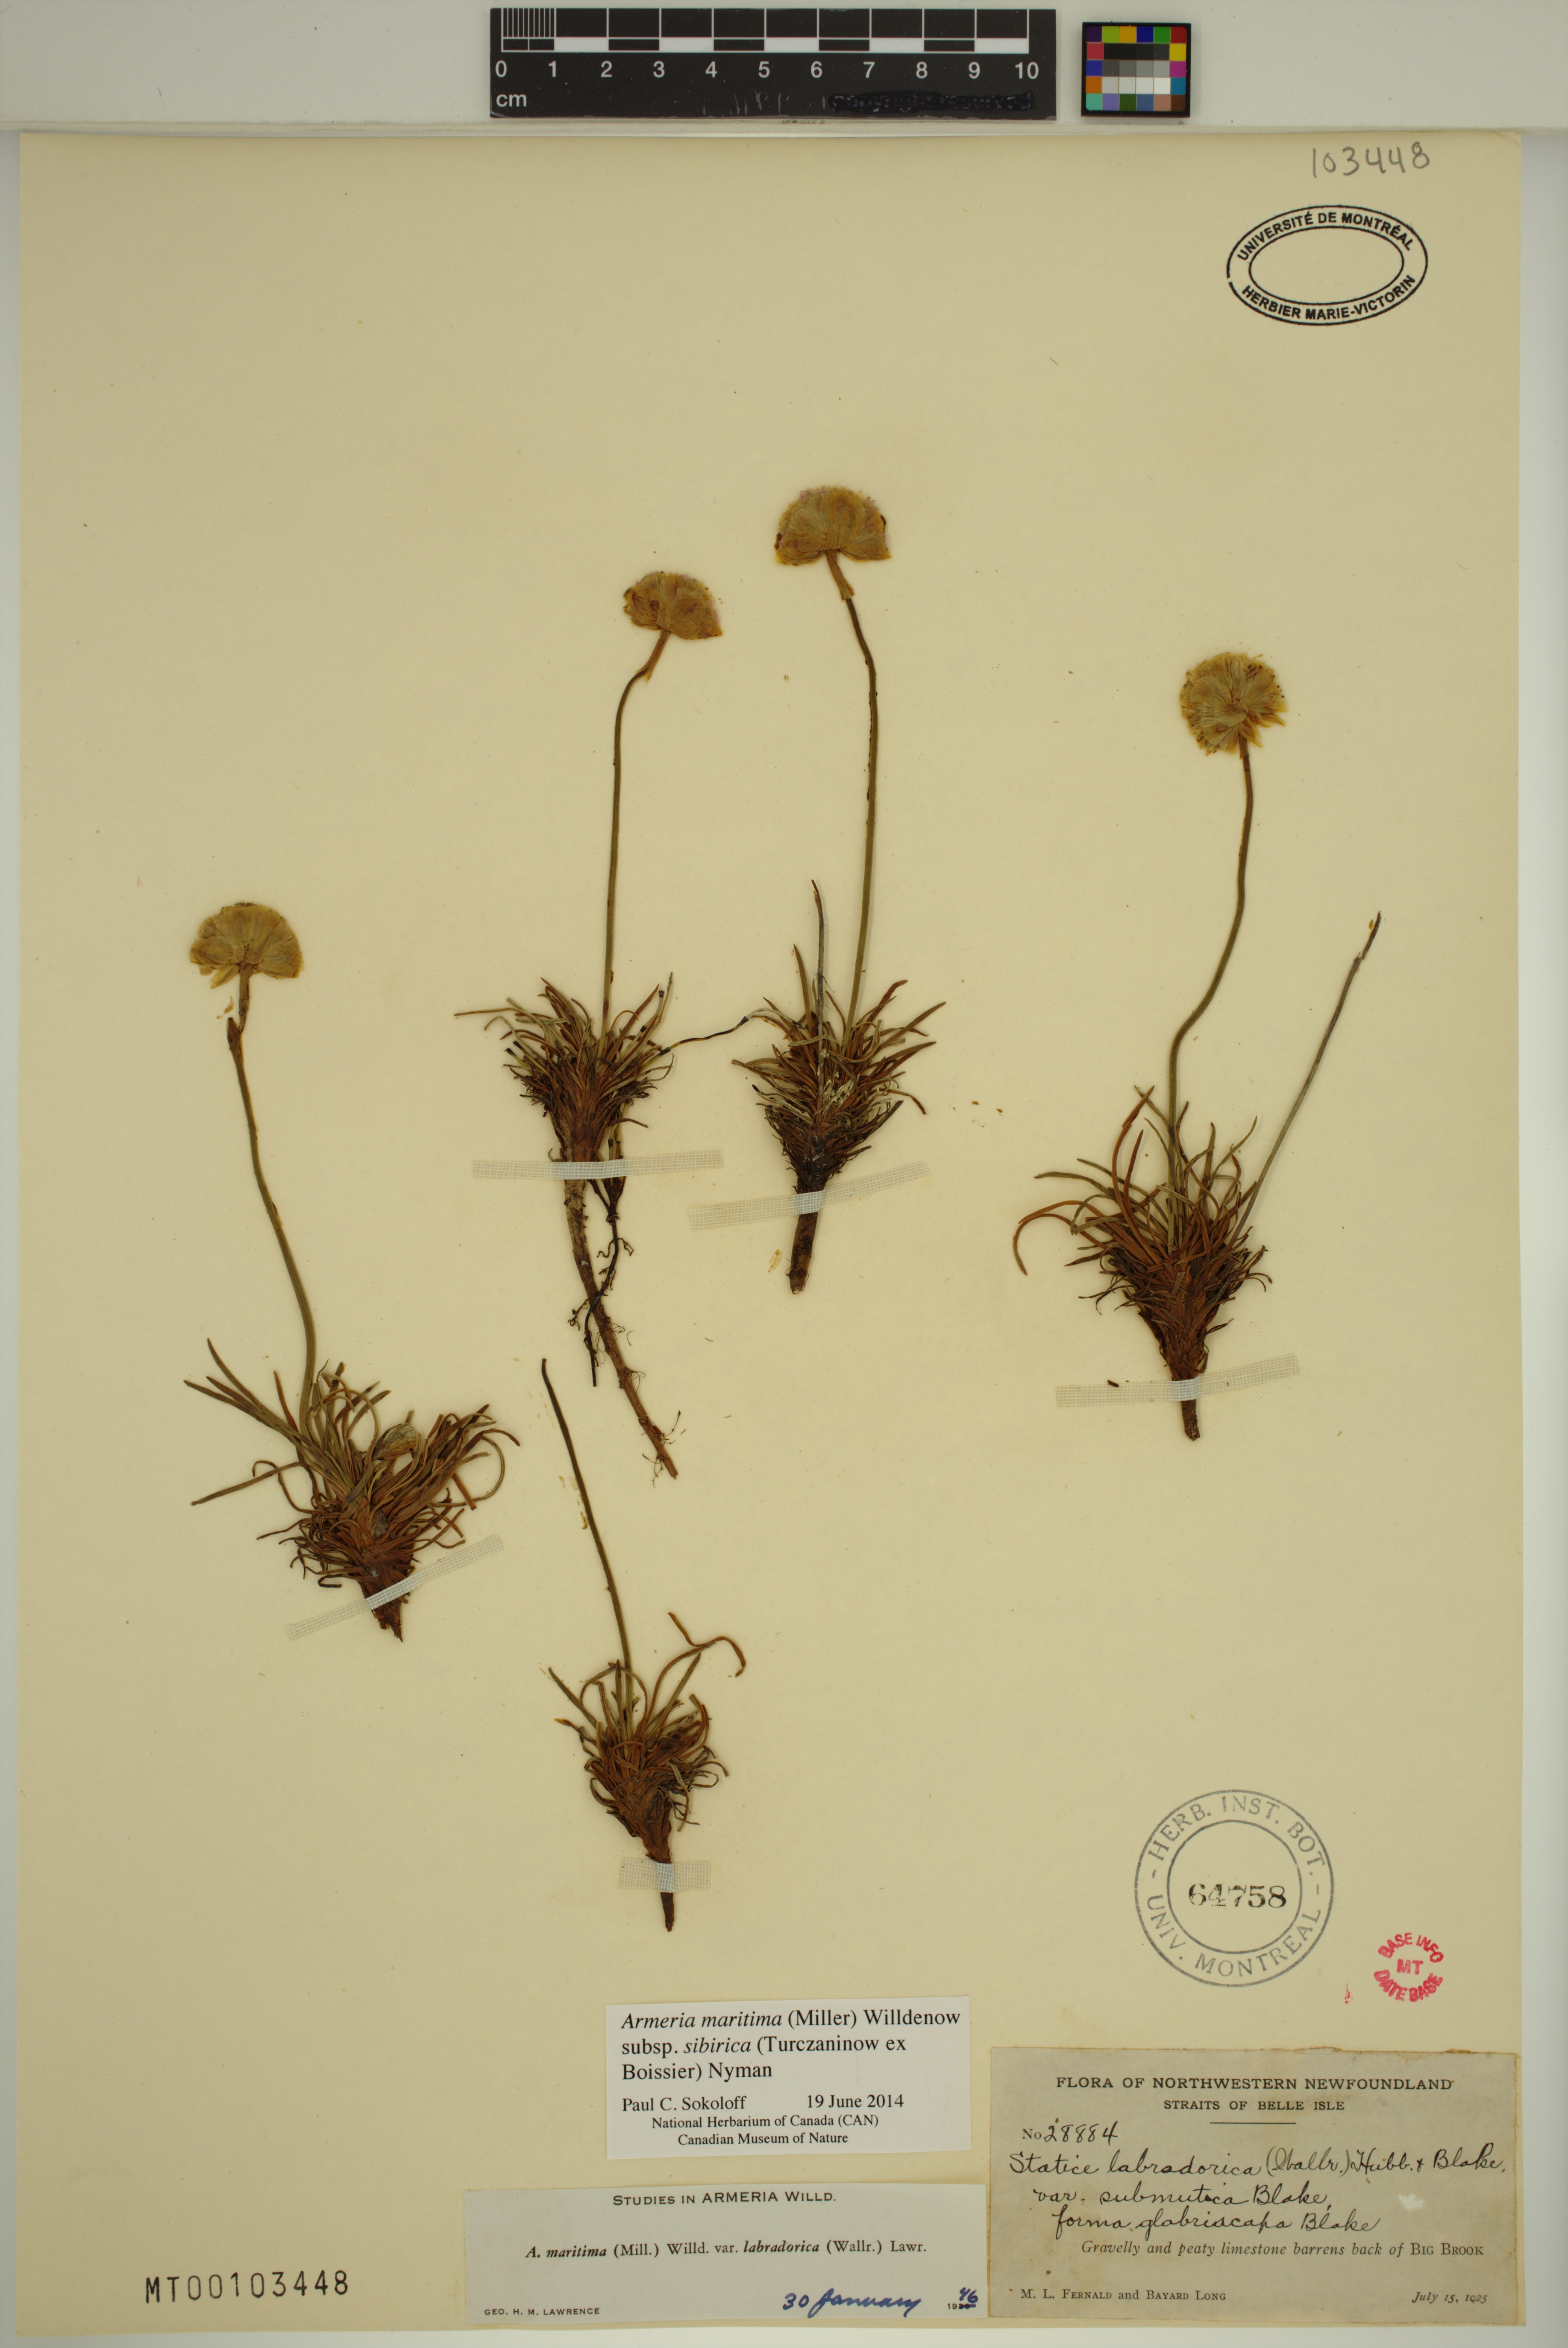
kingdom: Plantae
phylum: Tracheophyta
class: Magnoliopsida
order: Caryophyllales
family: Plumbaginaceae
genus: Armeria
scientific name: Armeria maritima
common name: Thrift
